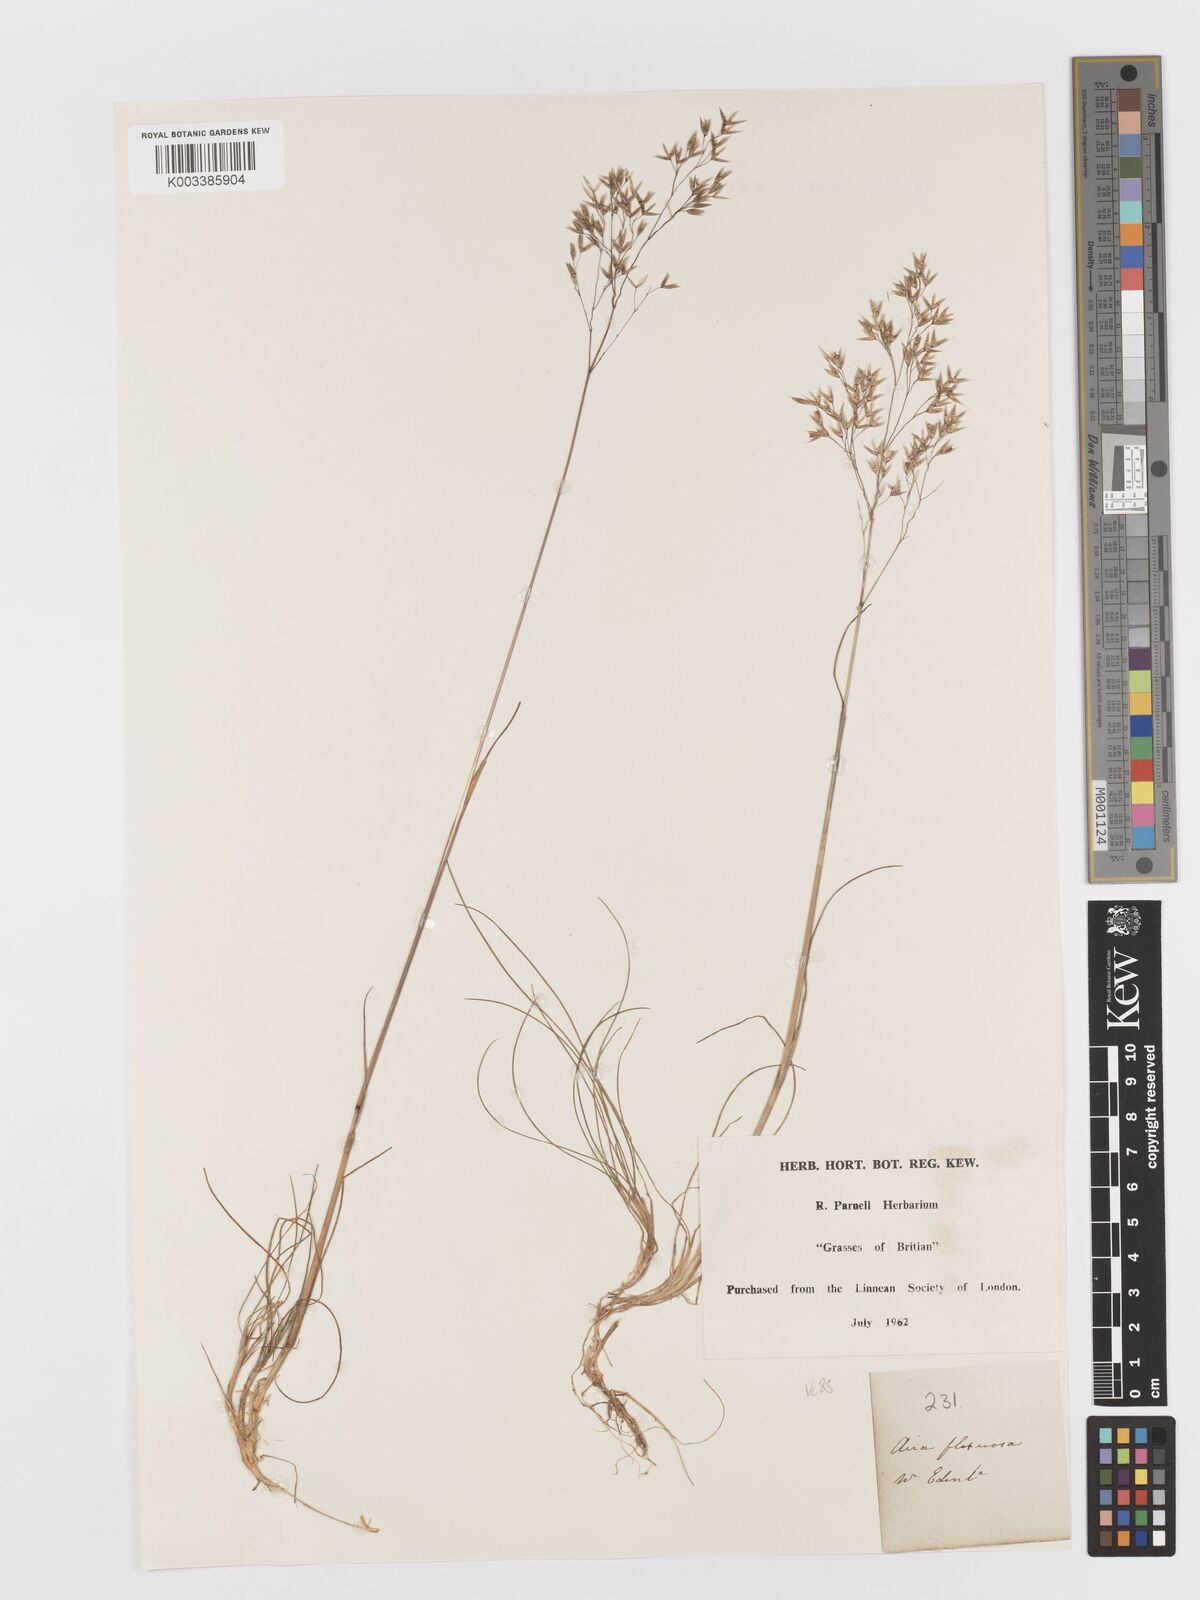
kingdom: Plantae
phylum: Tracheophyta
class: Liliopsida
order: Poales
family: Poaceae
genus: Avenella
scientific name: Avenella flexuosa
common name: Wavy hairgrass
